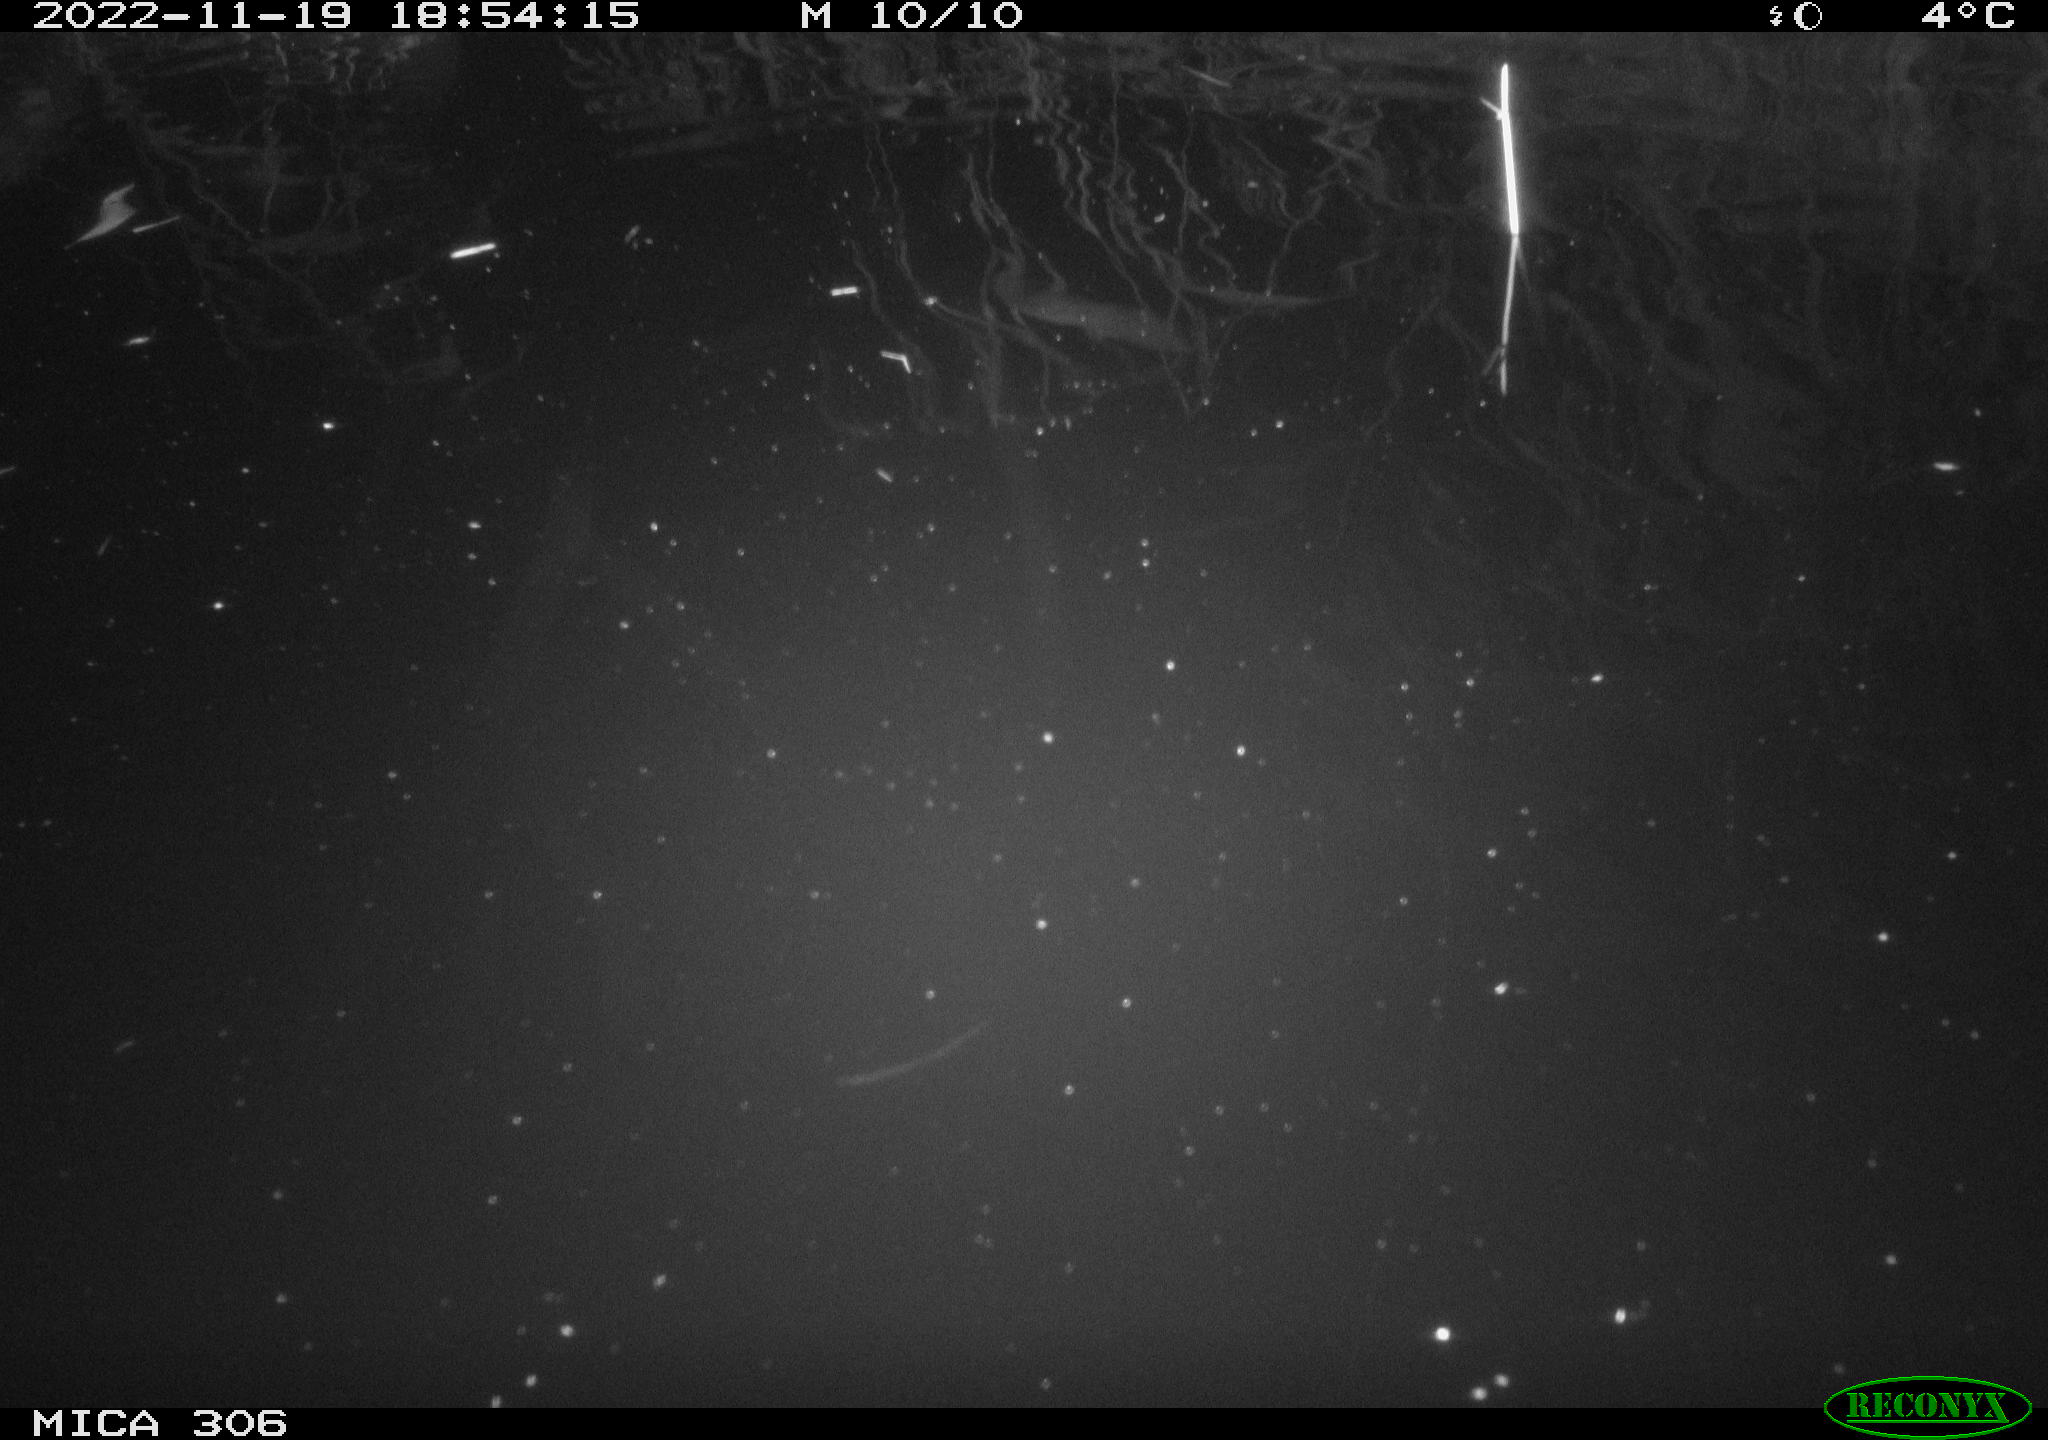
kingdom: Animalia
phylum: Chordata
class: Mammalia
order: Rodentia
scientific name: Rodentia
